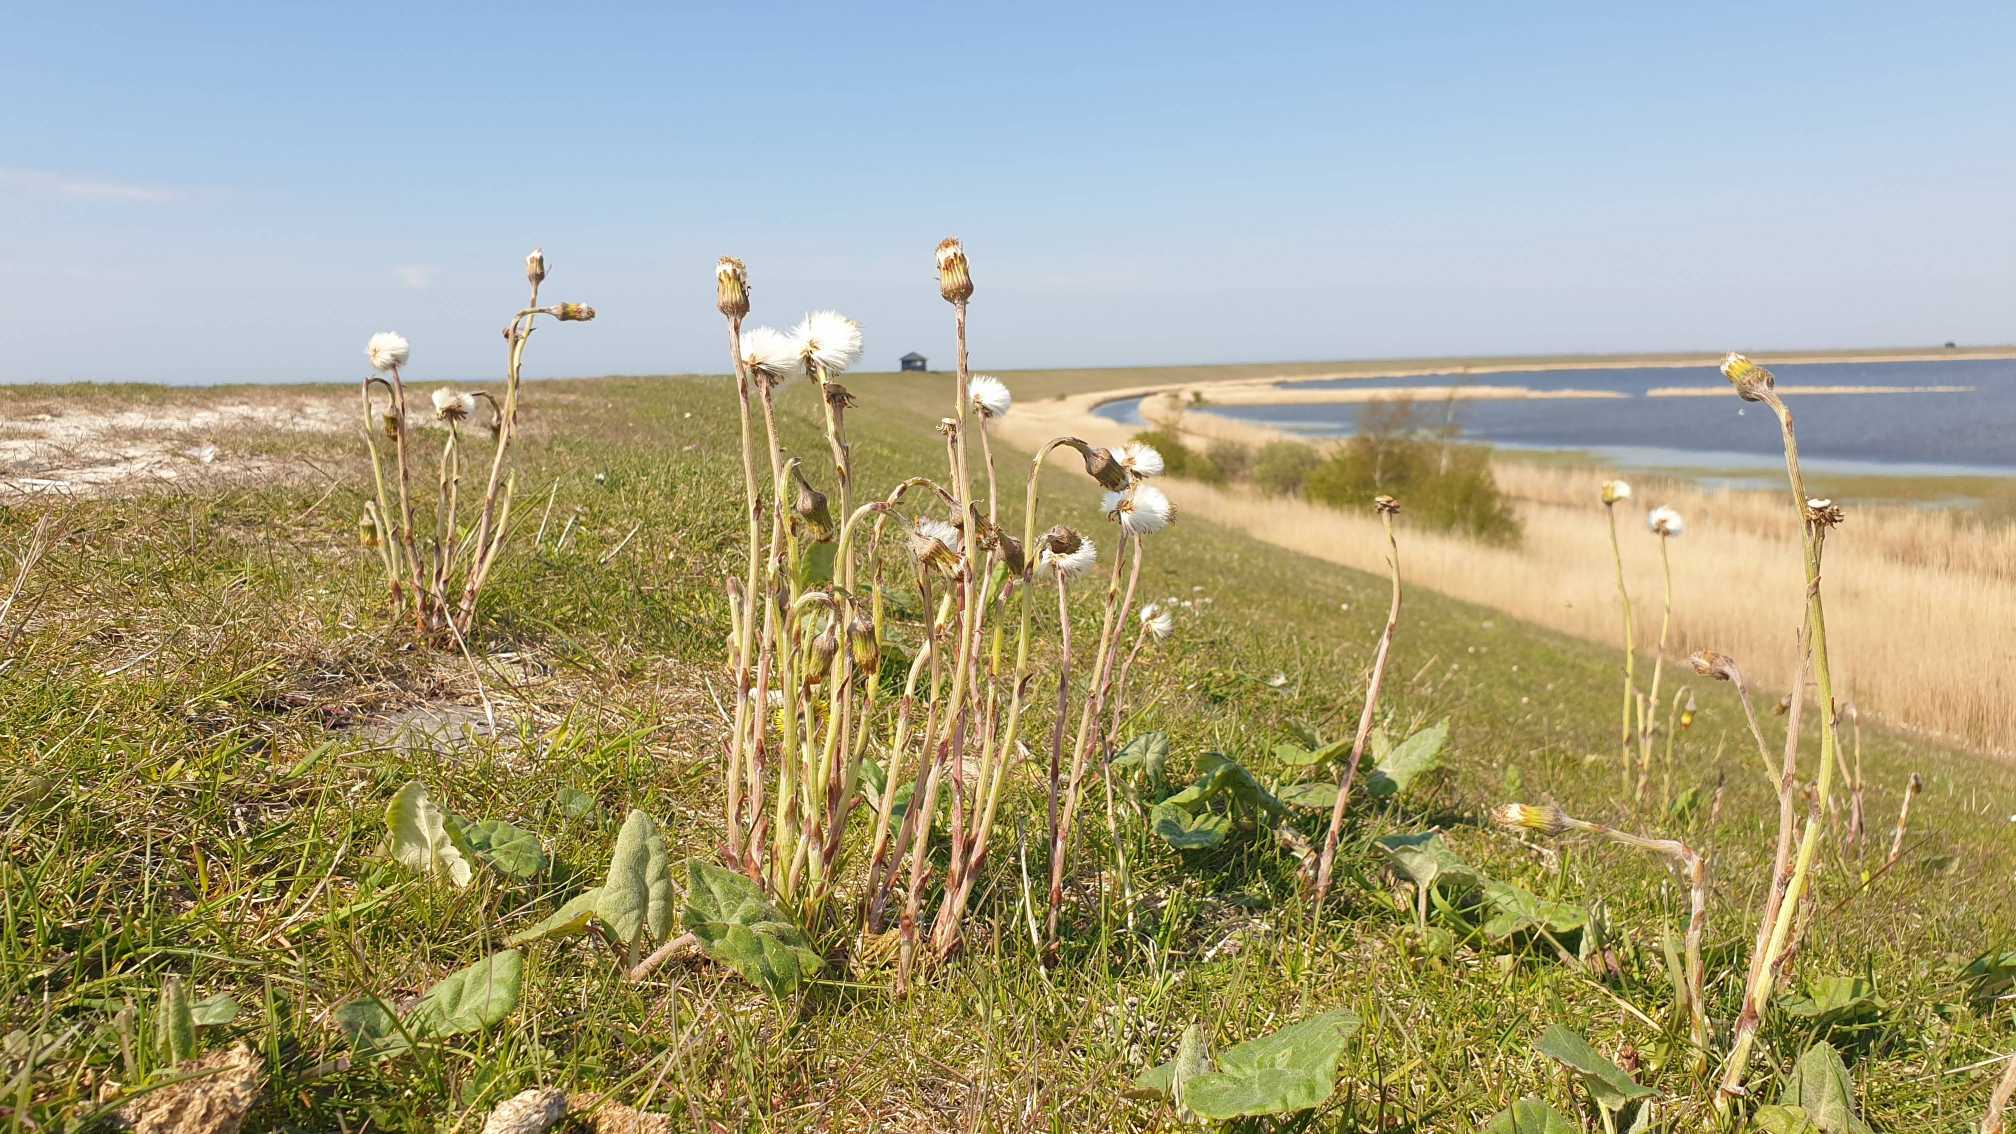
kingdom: Plantae
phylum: Tracheophyta
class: Magnoliopsida
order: Asterales
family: Asteraceae
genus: Tussilago
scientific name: Tussilago farfara
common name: Følfod
